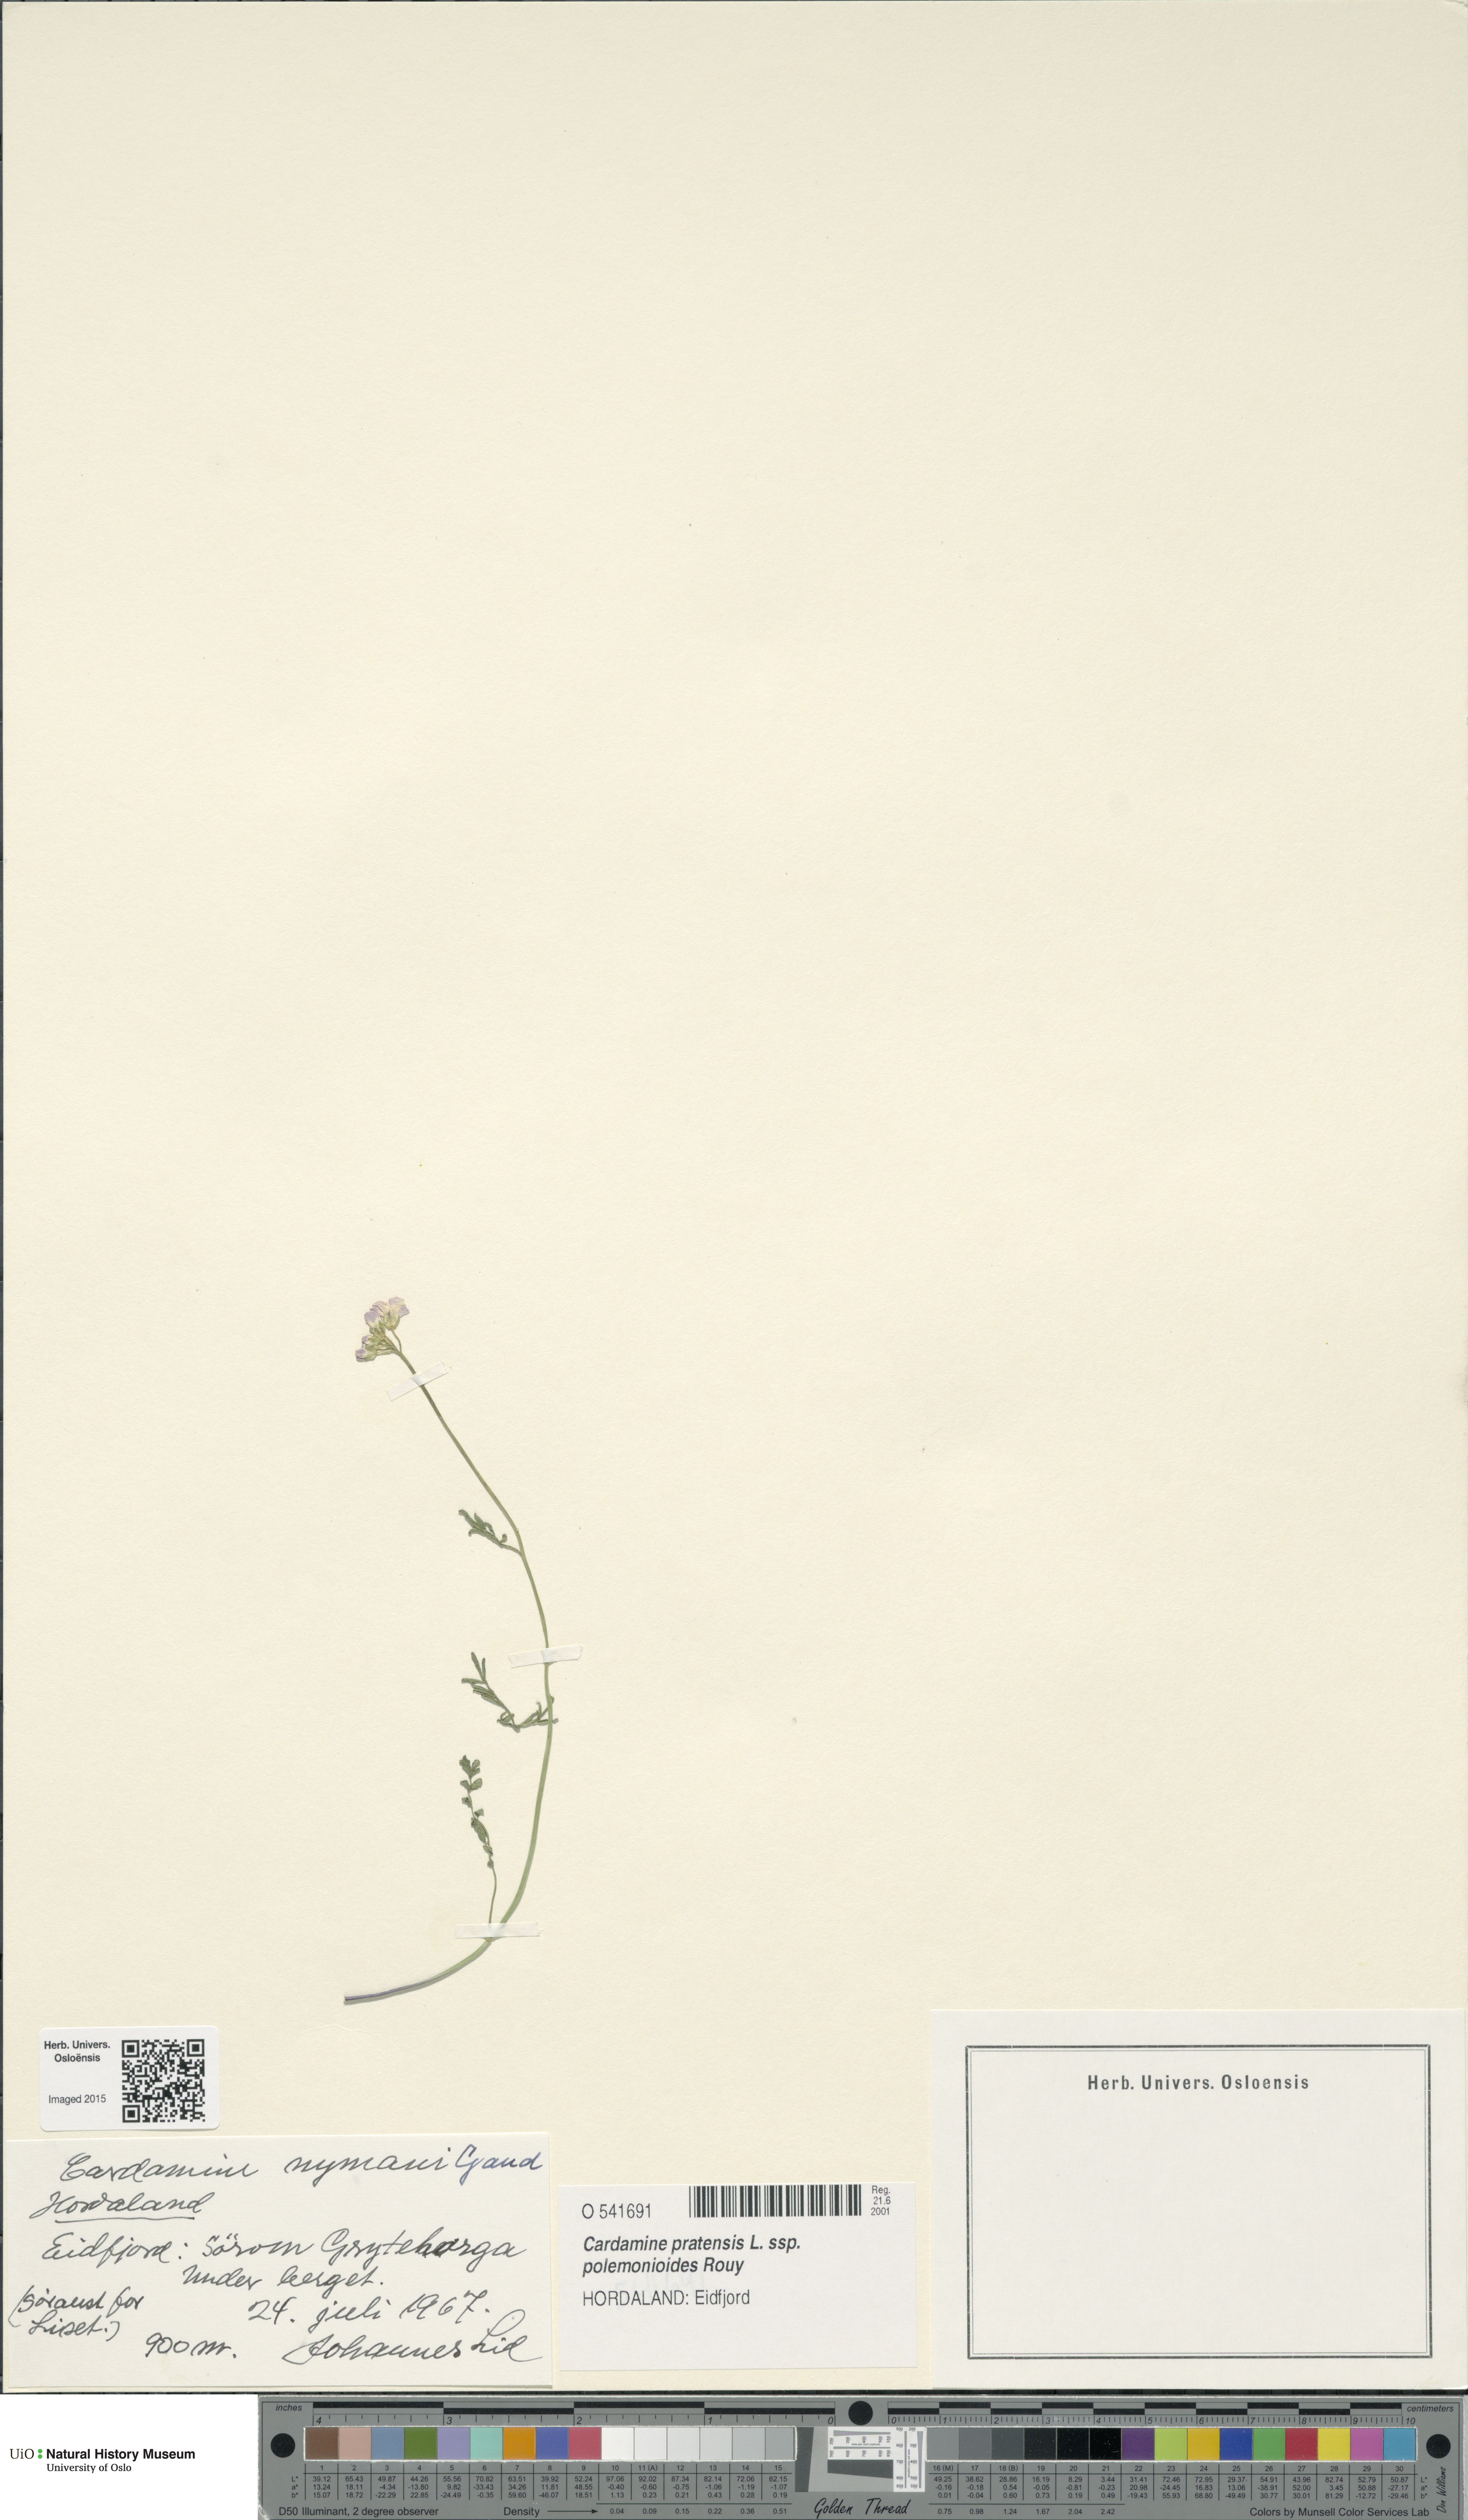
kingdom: Plantae
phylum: Tracheophyta
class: Magnoliopsida
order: Brassicales
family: Brassicaceae
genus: Cardamine
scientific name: Cardamine nymanii
